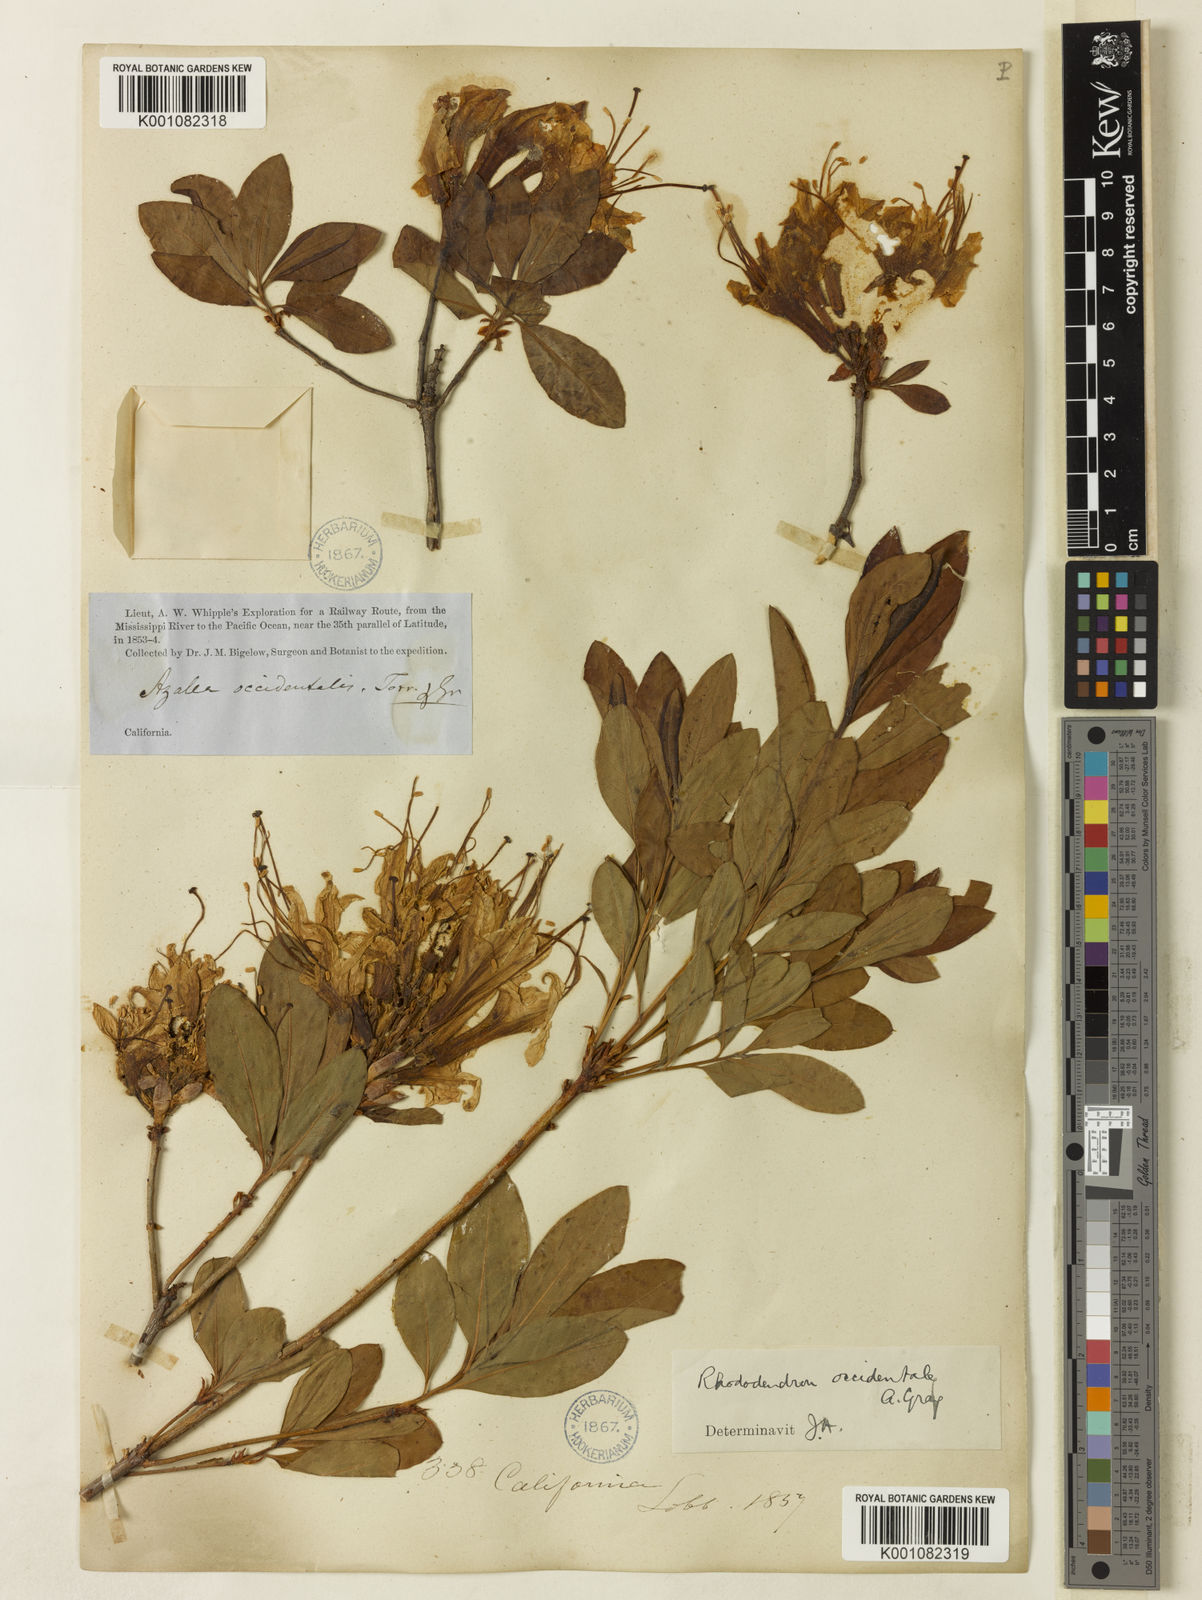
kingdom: Plantae
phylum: Tracheophyta
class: Magnoliopsida
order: Ericales
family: Ericaceae
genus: Rhododendron
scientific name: Rhododendron occidentale
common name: Western azalea
